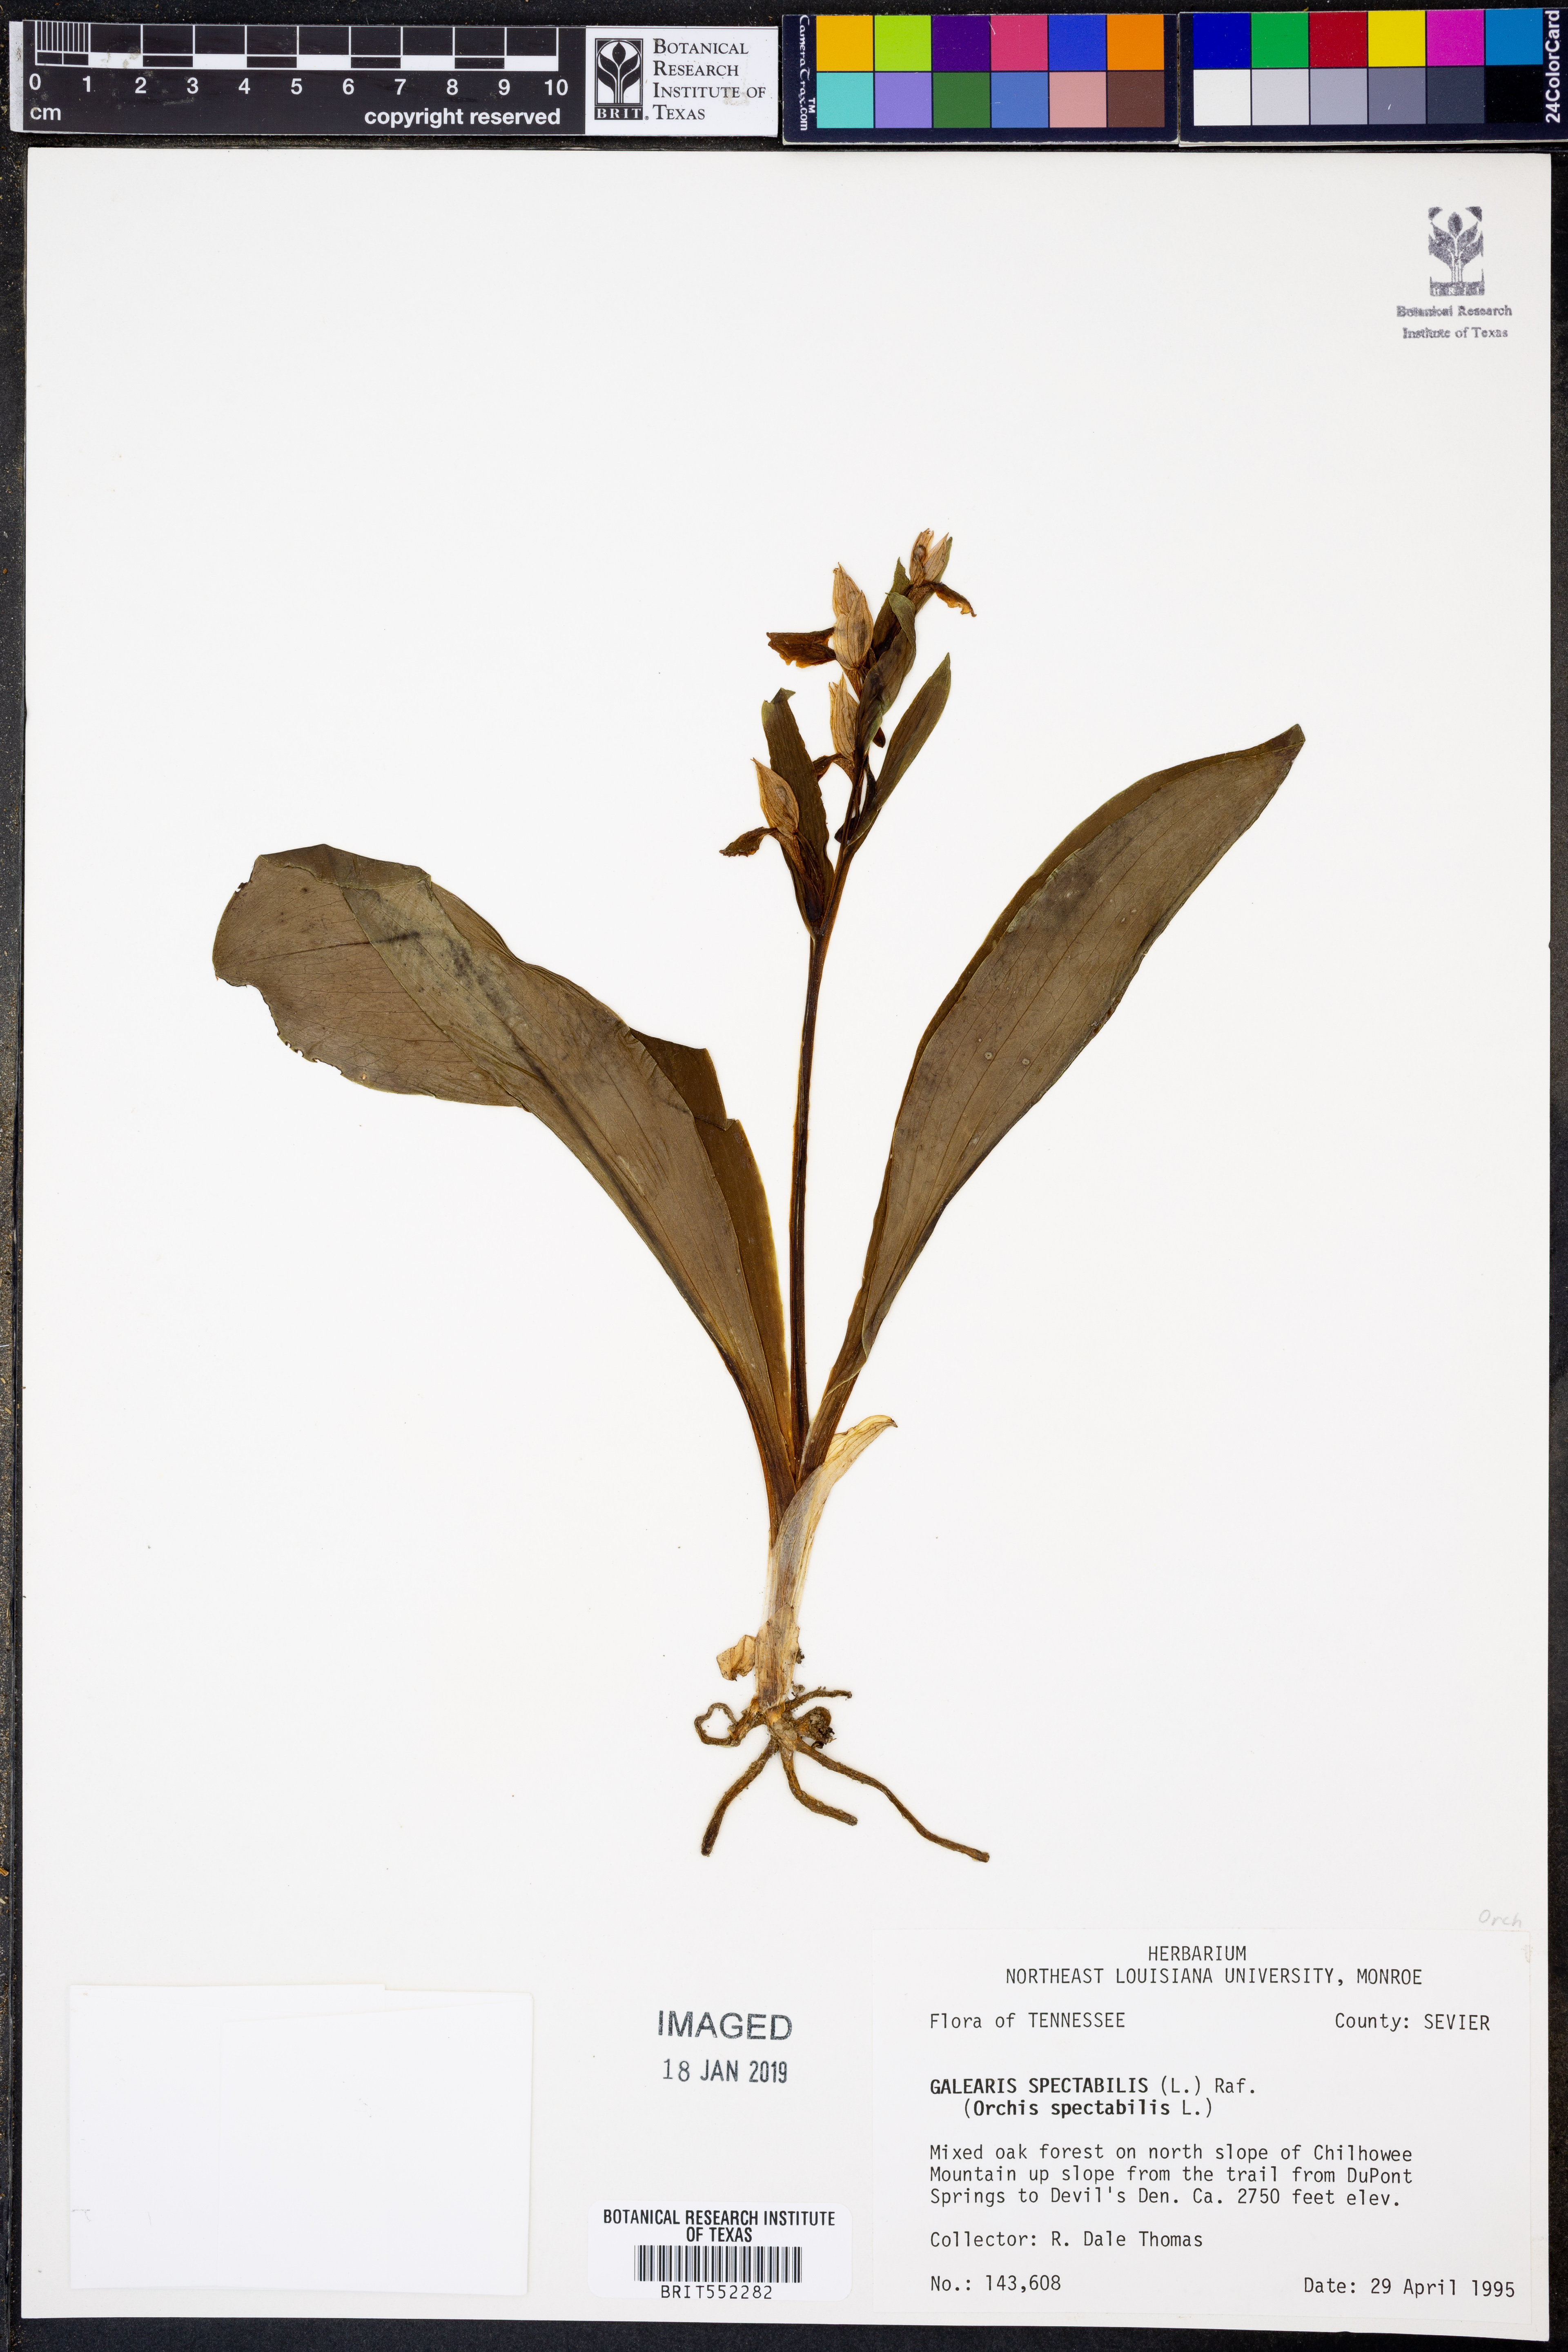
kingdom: Plantae
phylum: Tracheophyta
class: Liliopsida
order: Asparagales
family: Orchidaceae
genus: Galearis
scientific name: Galearis spectabilis
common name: Purple-hooded orchis
